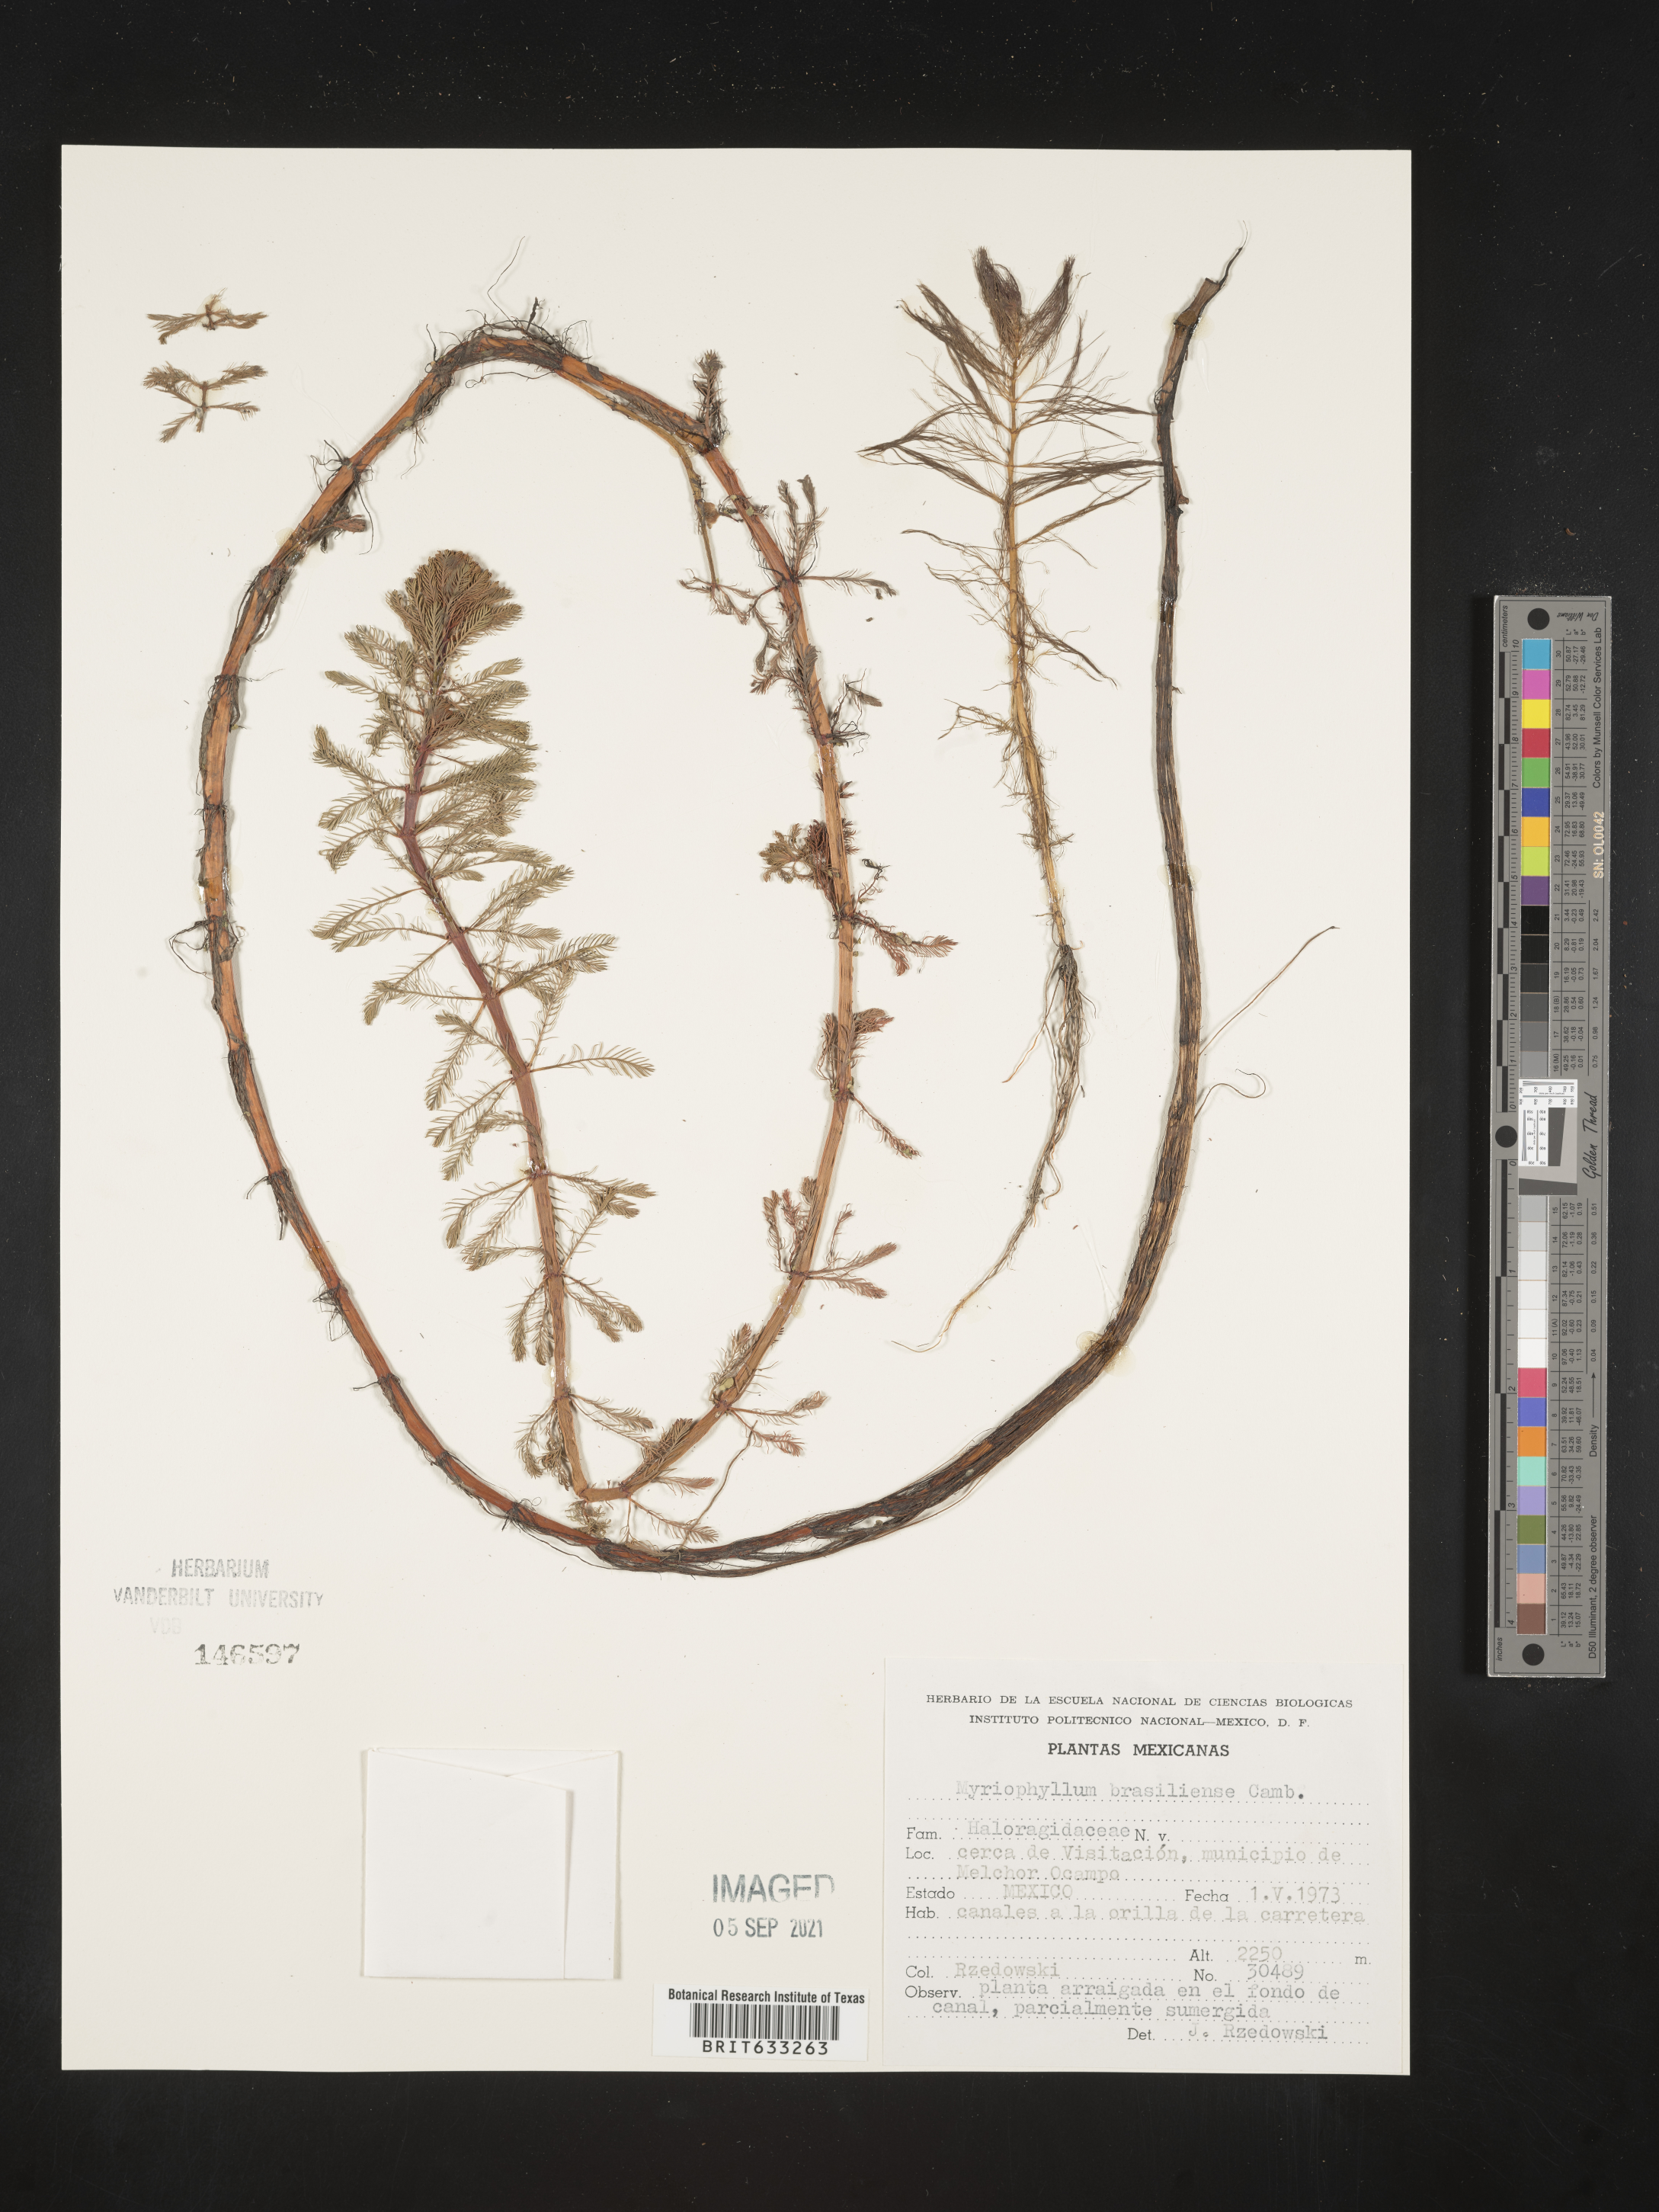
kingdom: Plantae
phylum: Tracheophyta
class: Magnoliopsida
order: Saxifragales
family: Haloragaceae
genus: Myriophyllum
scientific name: Myriophyllum
